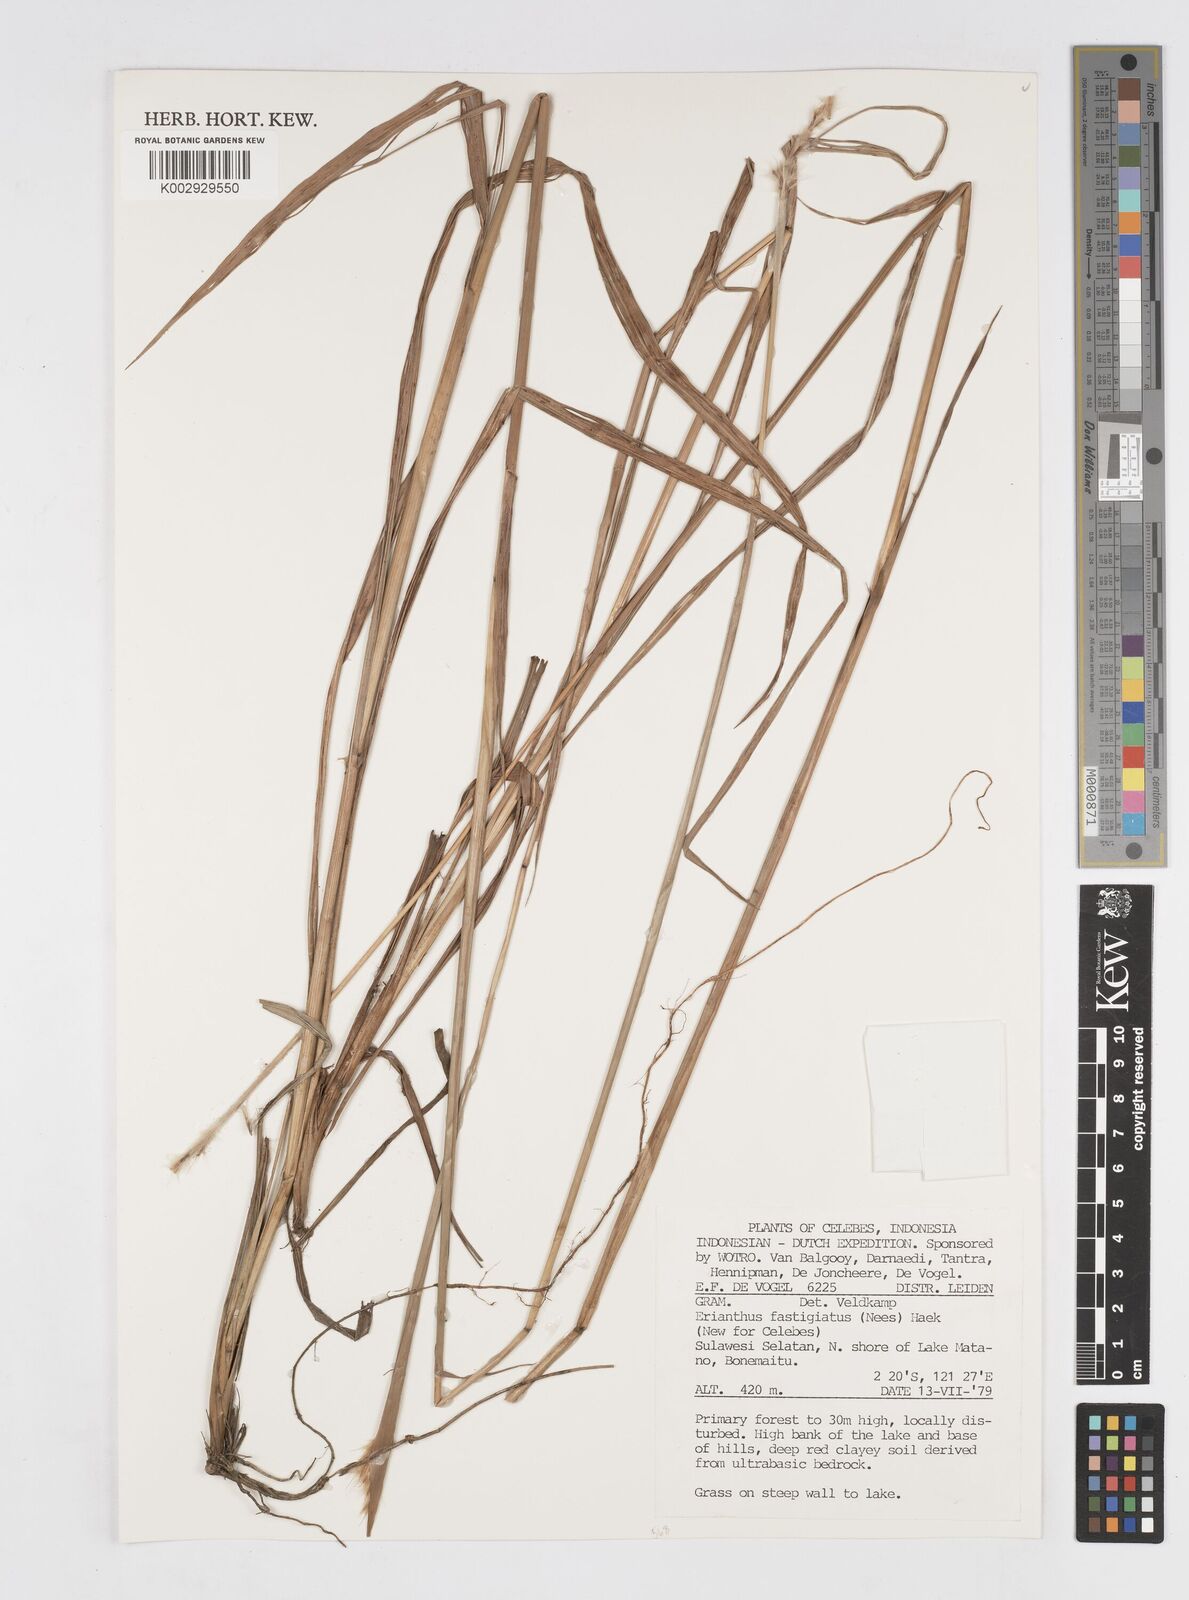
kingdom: Plantae
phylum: Tracheophyta
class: Liliopsida
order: Poales
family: Poaceae
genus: Saccharum
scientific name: Saccharum
